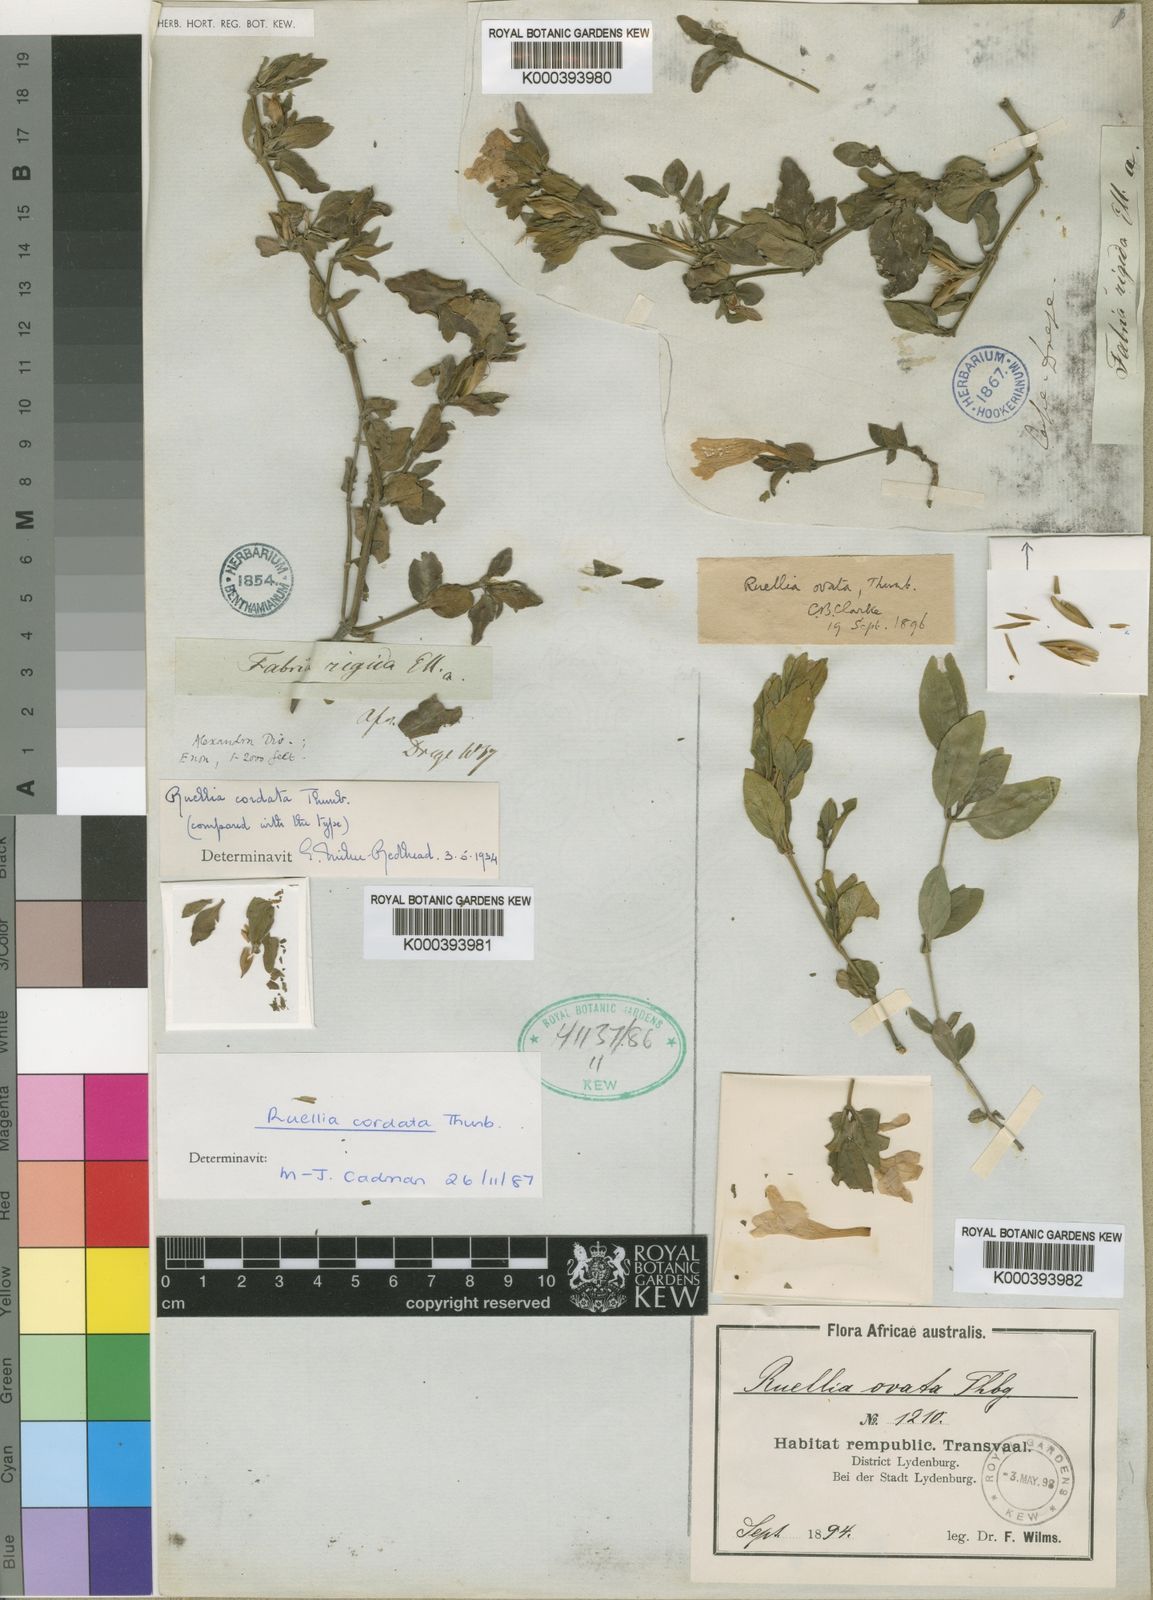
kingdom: Plantae
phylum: Tracheophyta
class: Magnoliopsida
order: Lamiales
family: Acanthaceae
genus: Ruellia
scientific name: Ruellia cordata
